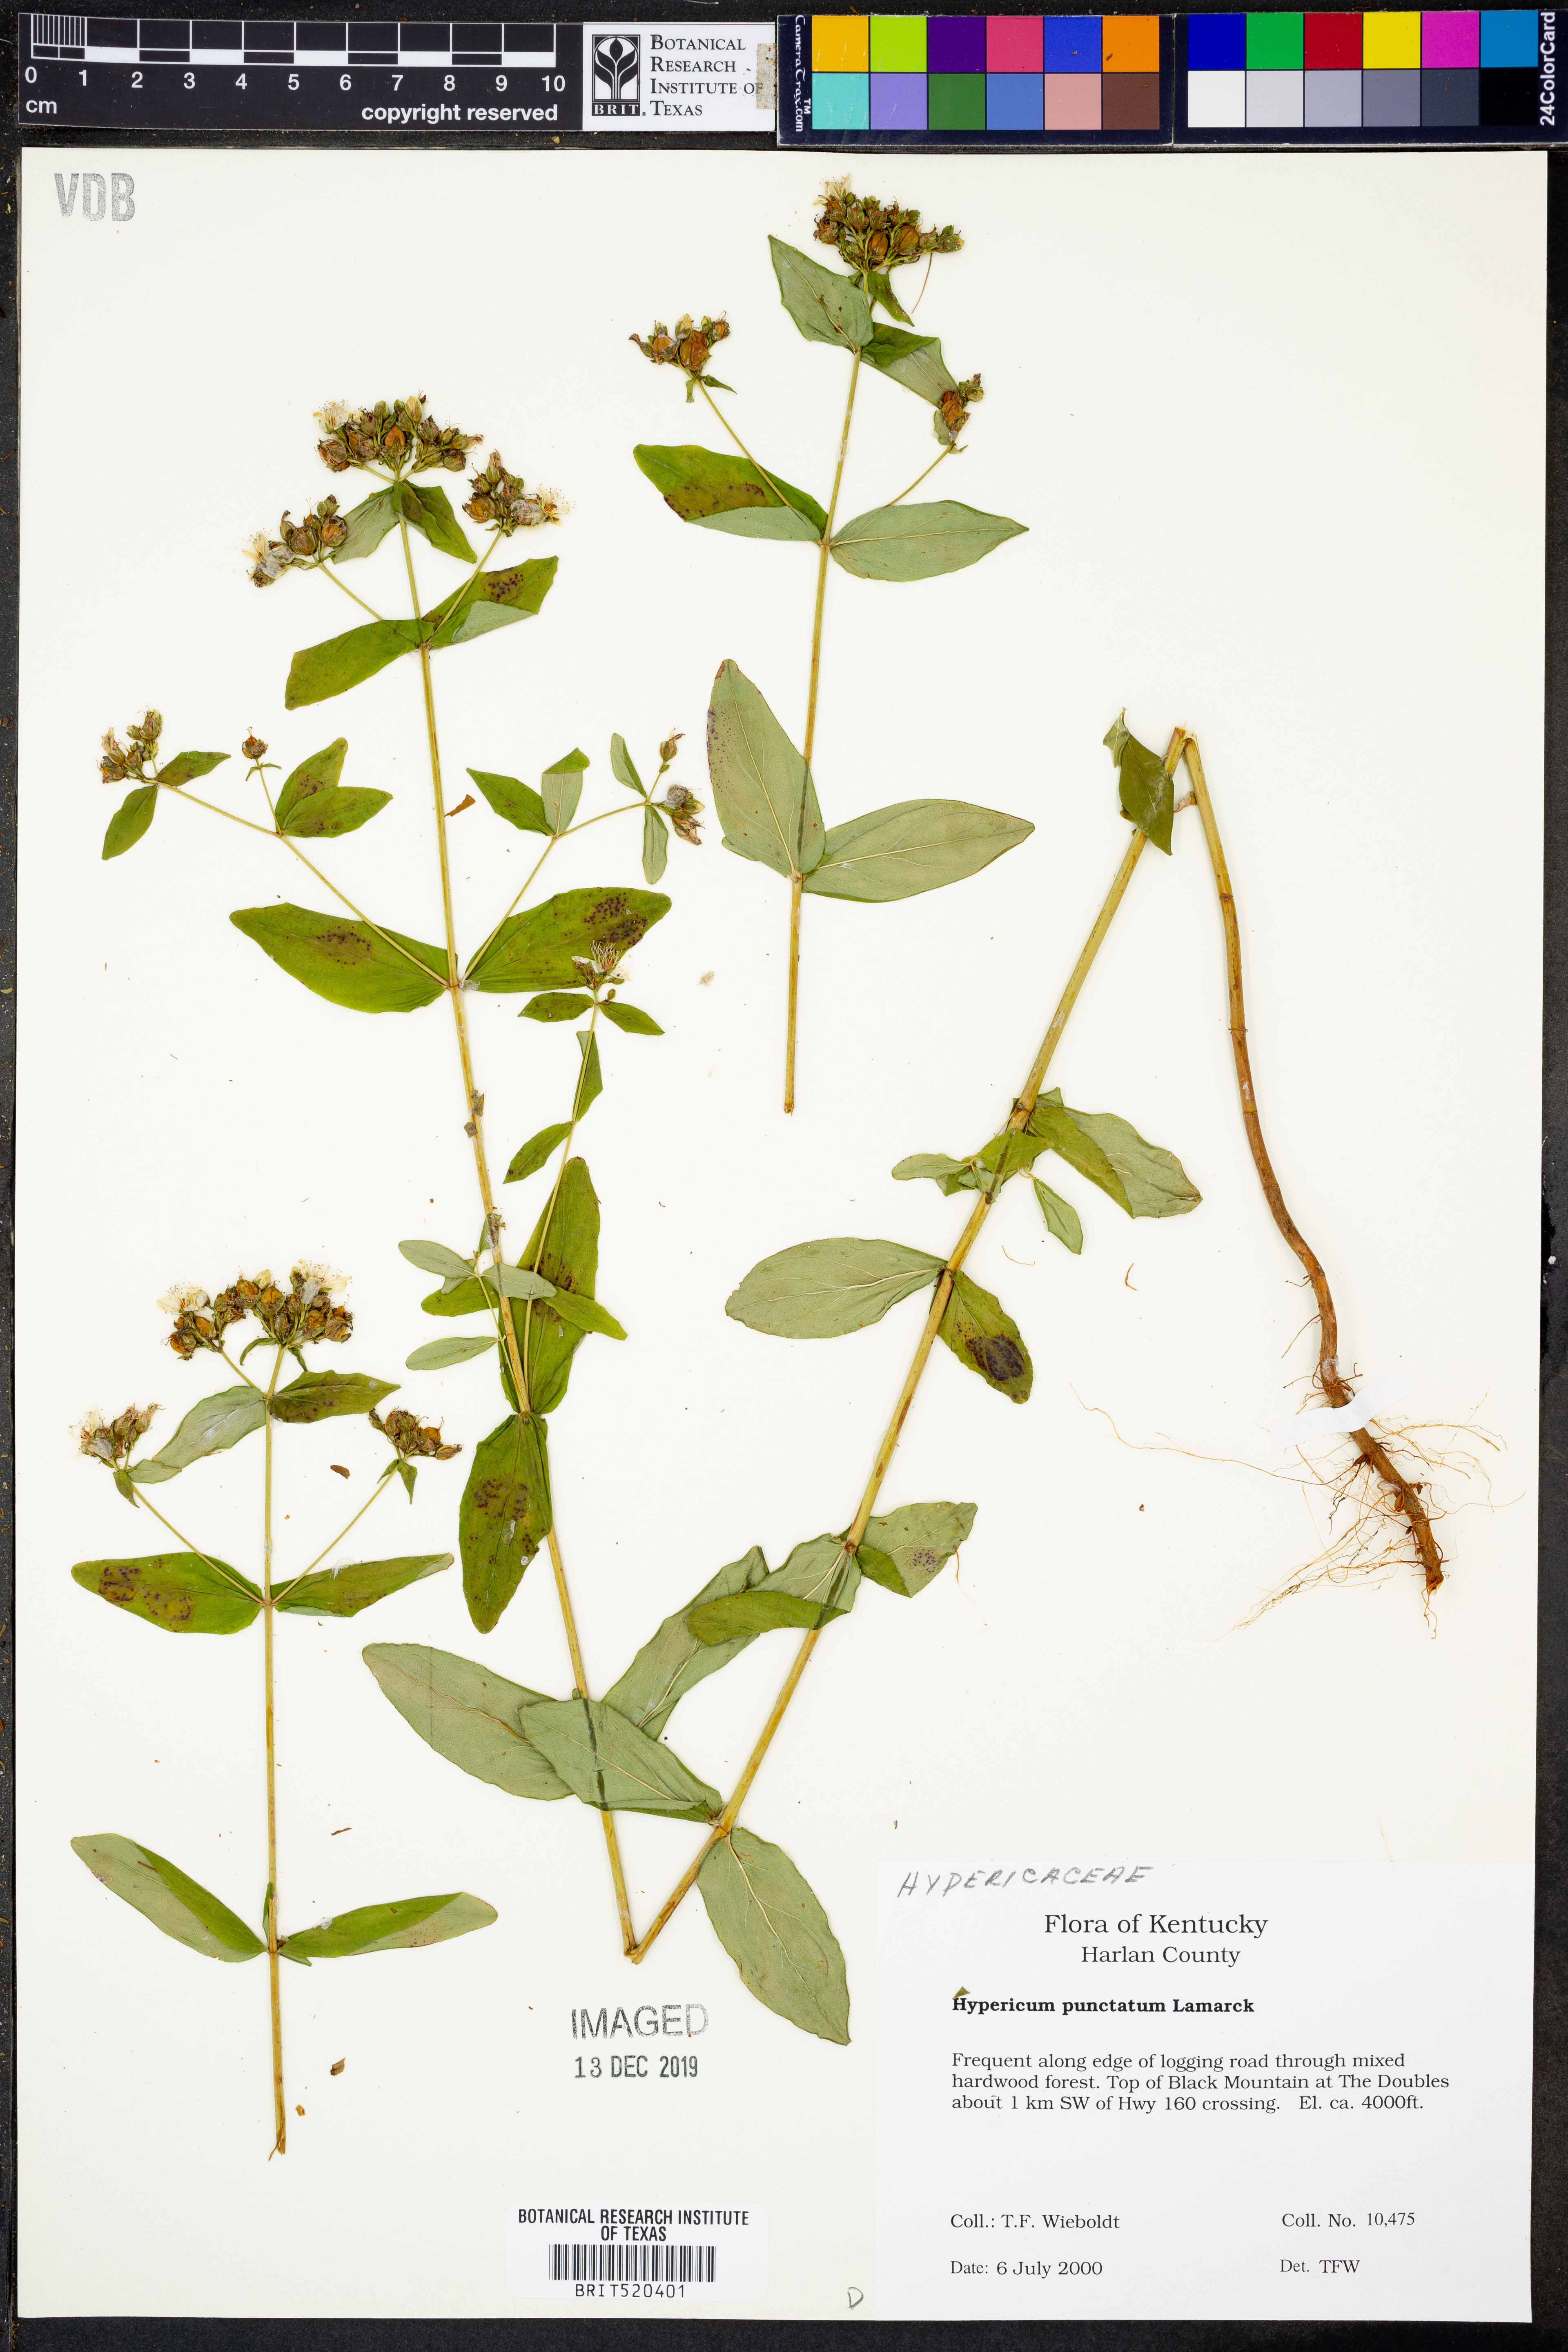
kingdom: Plantae
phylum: Tracheophyta
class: Magnoliopsida
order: Malpighiales
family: Hypericaceae
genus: Hypericum
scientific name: Hypericum punctatum
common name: Spotted st. john's-wort
